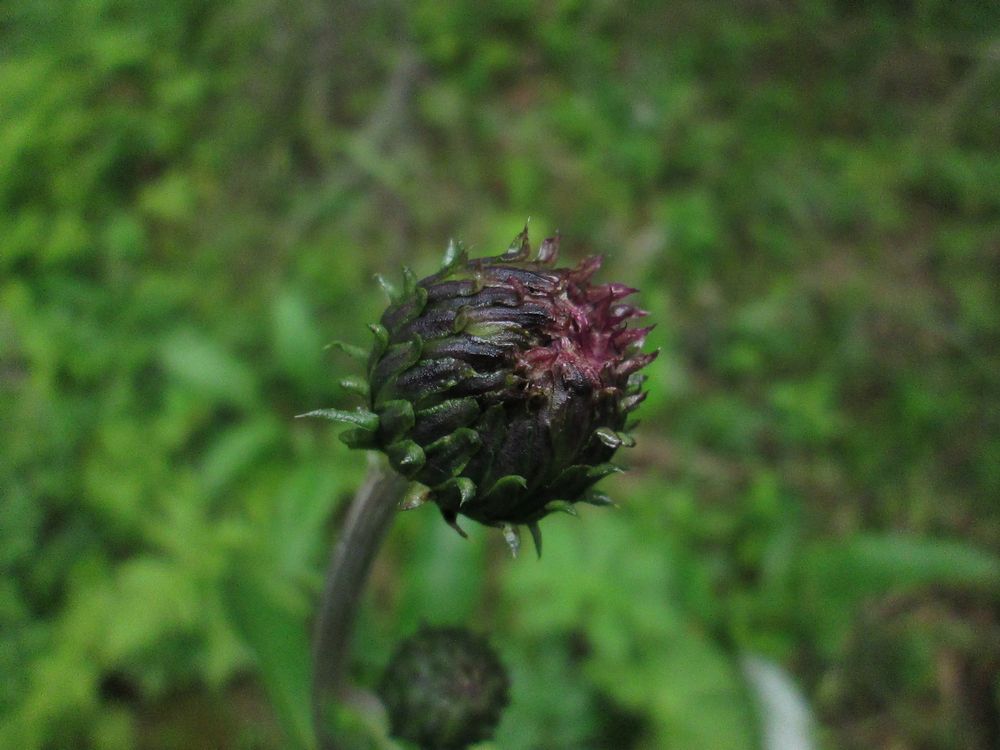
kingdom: Plantae
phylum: Tracheophyta
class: Magnoliopsida
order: Asterales
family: Asteraceae
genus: Cirsium
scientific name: Cirsium heterophyllum
